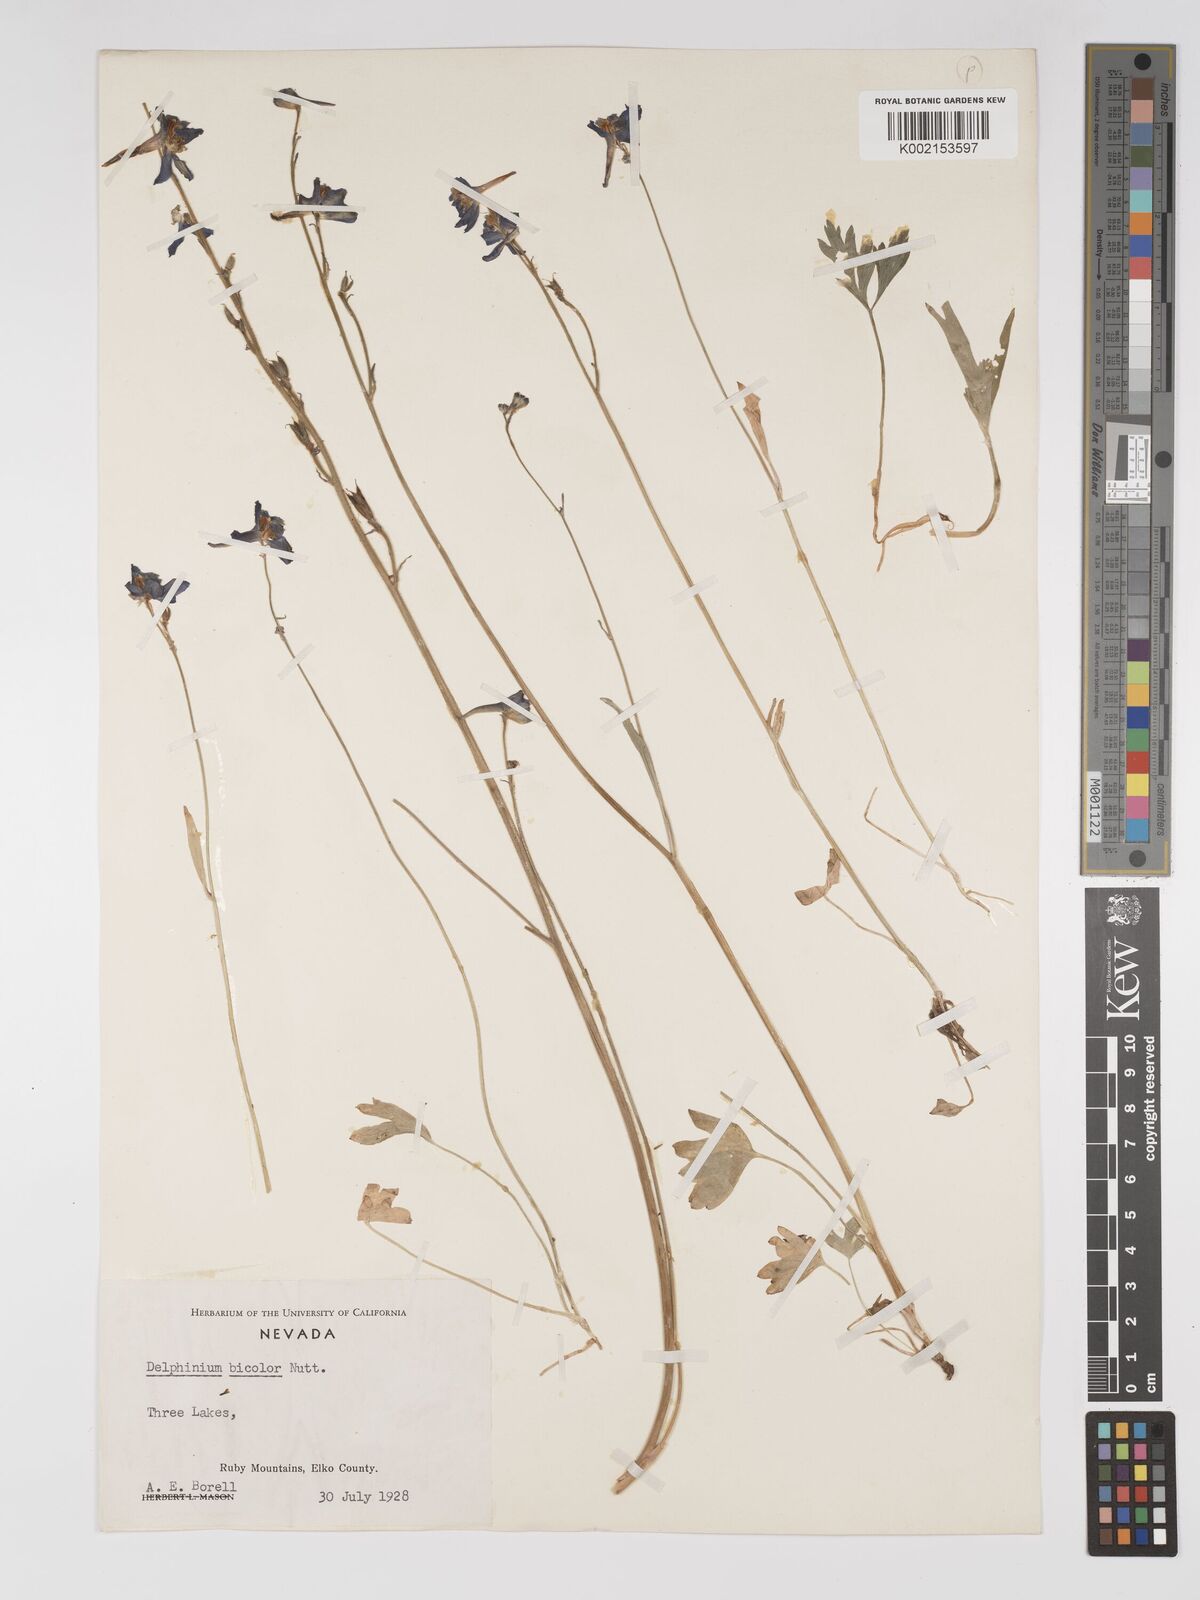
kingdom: Plantae
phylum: Tracheophyta
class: Magnoliopsida
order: Ranunculales
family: Ranunculaceae
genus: Delphinium
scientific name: Delphinium bicolor
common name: Low larkspur
